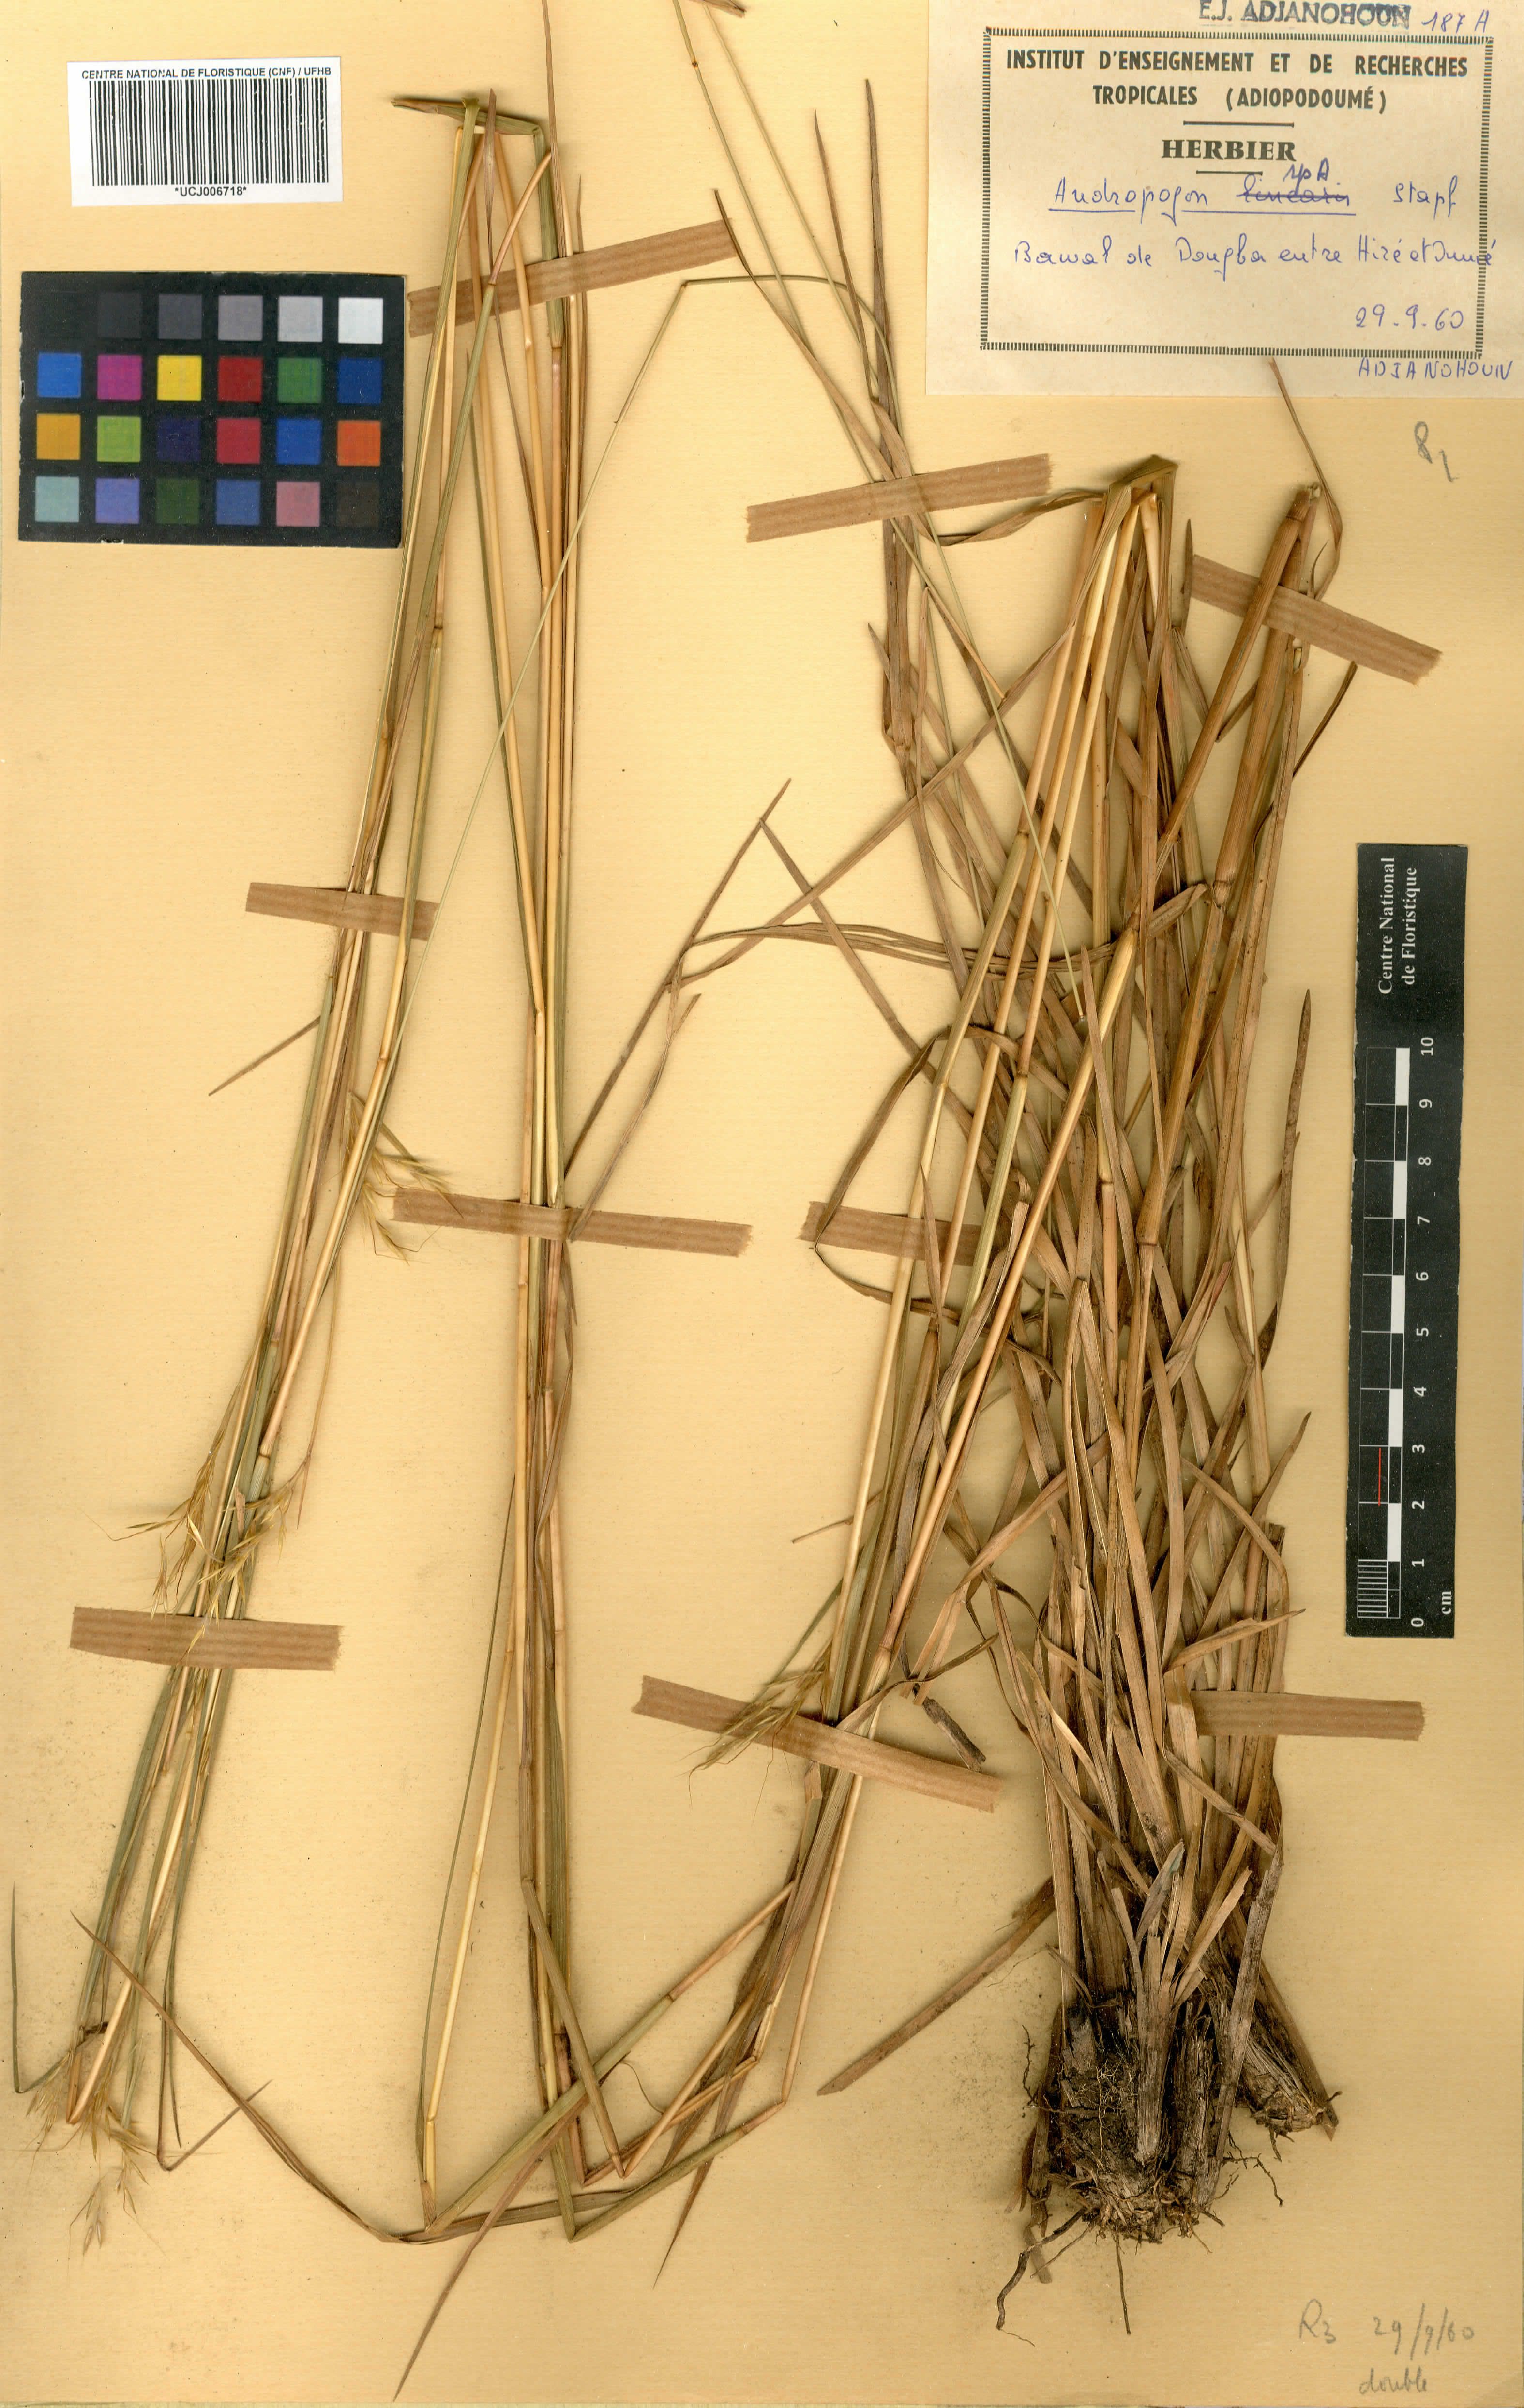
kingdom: Plantae
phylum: Tracheophyta
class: Liliopsida
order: Poales
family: Poaceae
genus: Andropogon
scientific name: Andropogon pseudapricus
